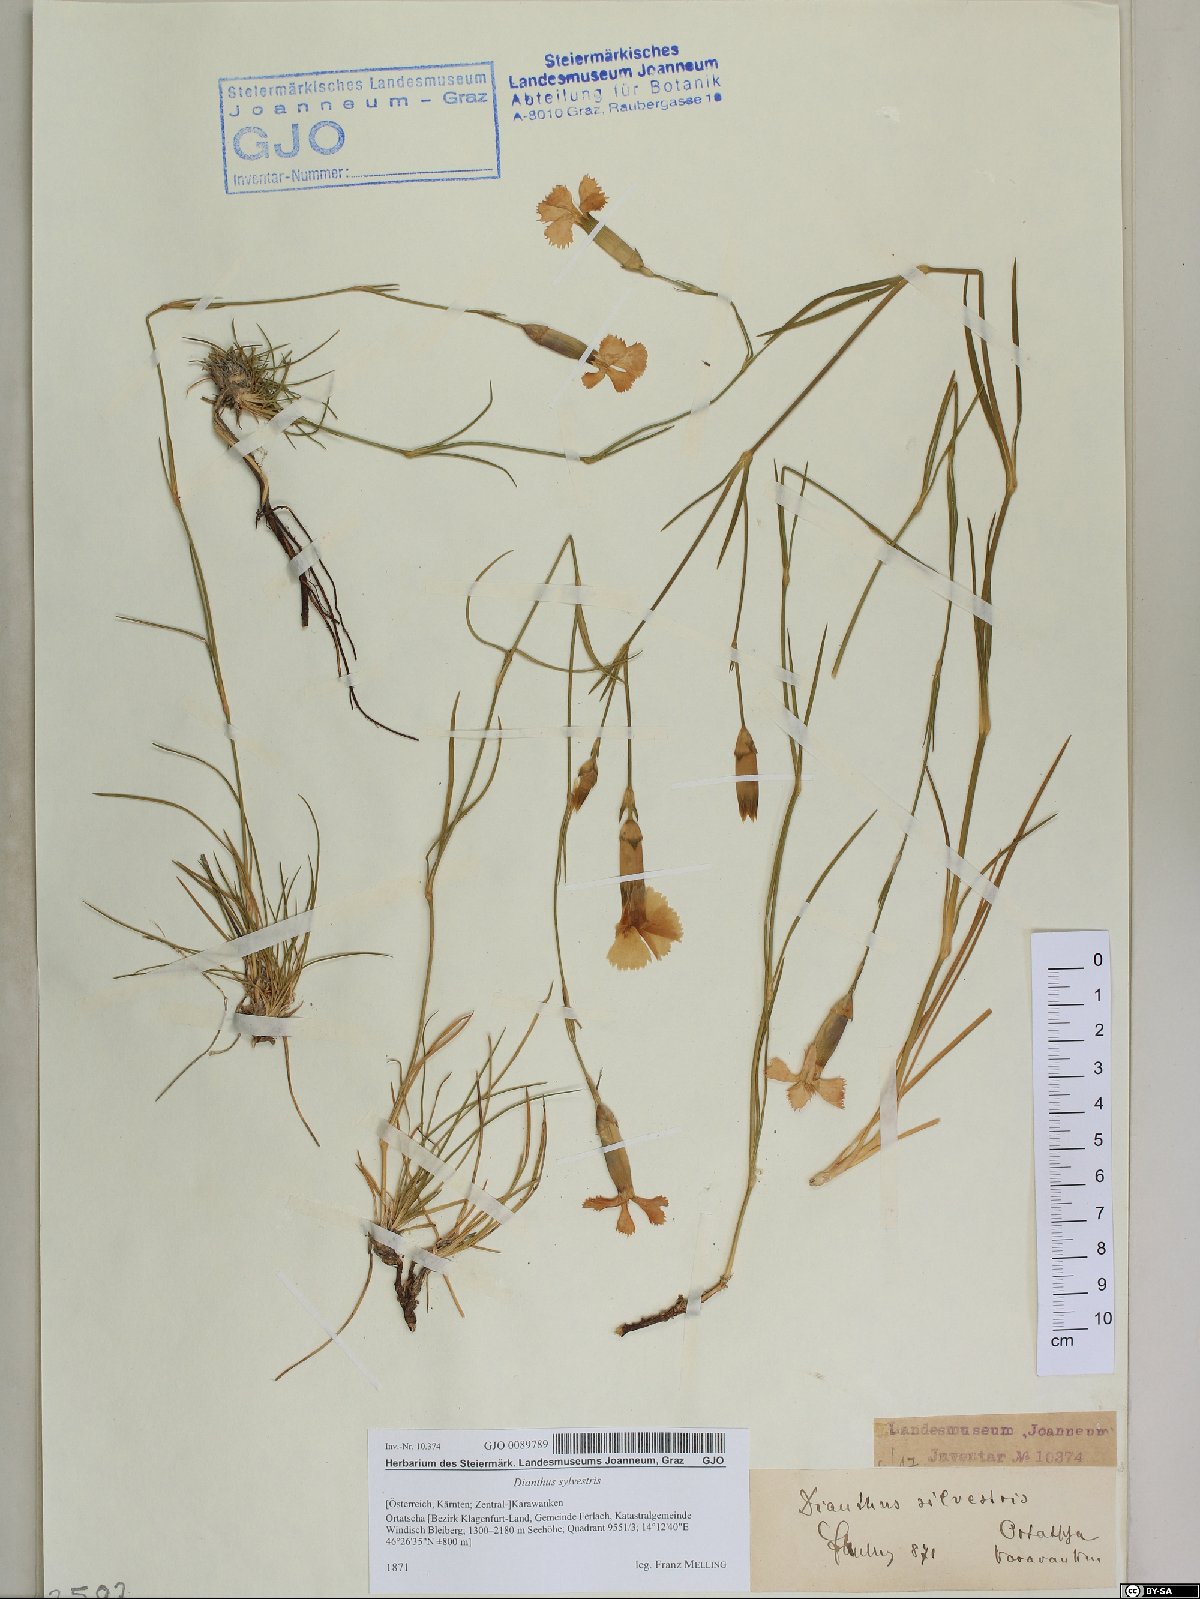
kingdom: Plantae
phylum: Tracheophyta
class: Magnoliopsida
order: Caryophyllales
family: Caryophyllaceae
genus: Dianthus
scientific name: Dianthus sylvestris
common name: Wood pink
